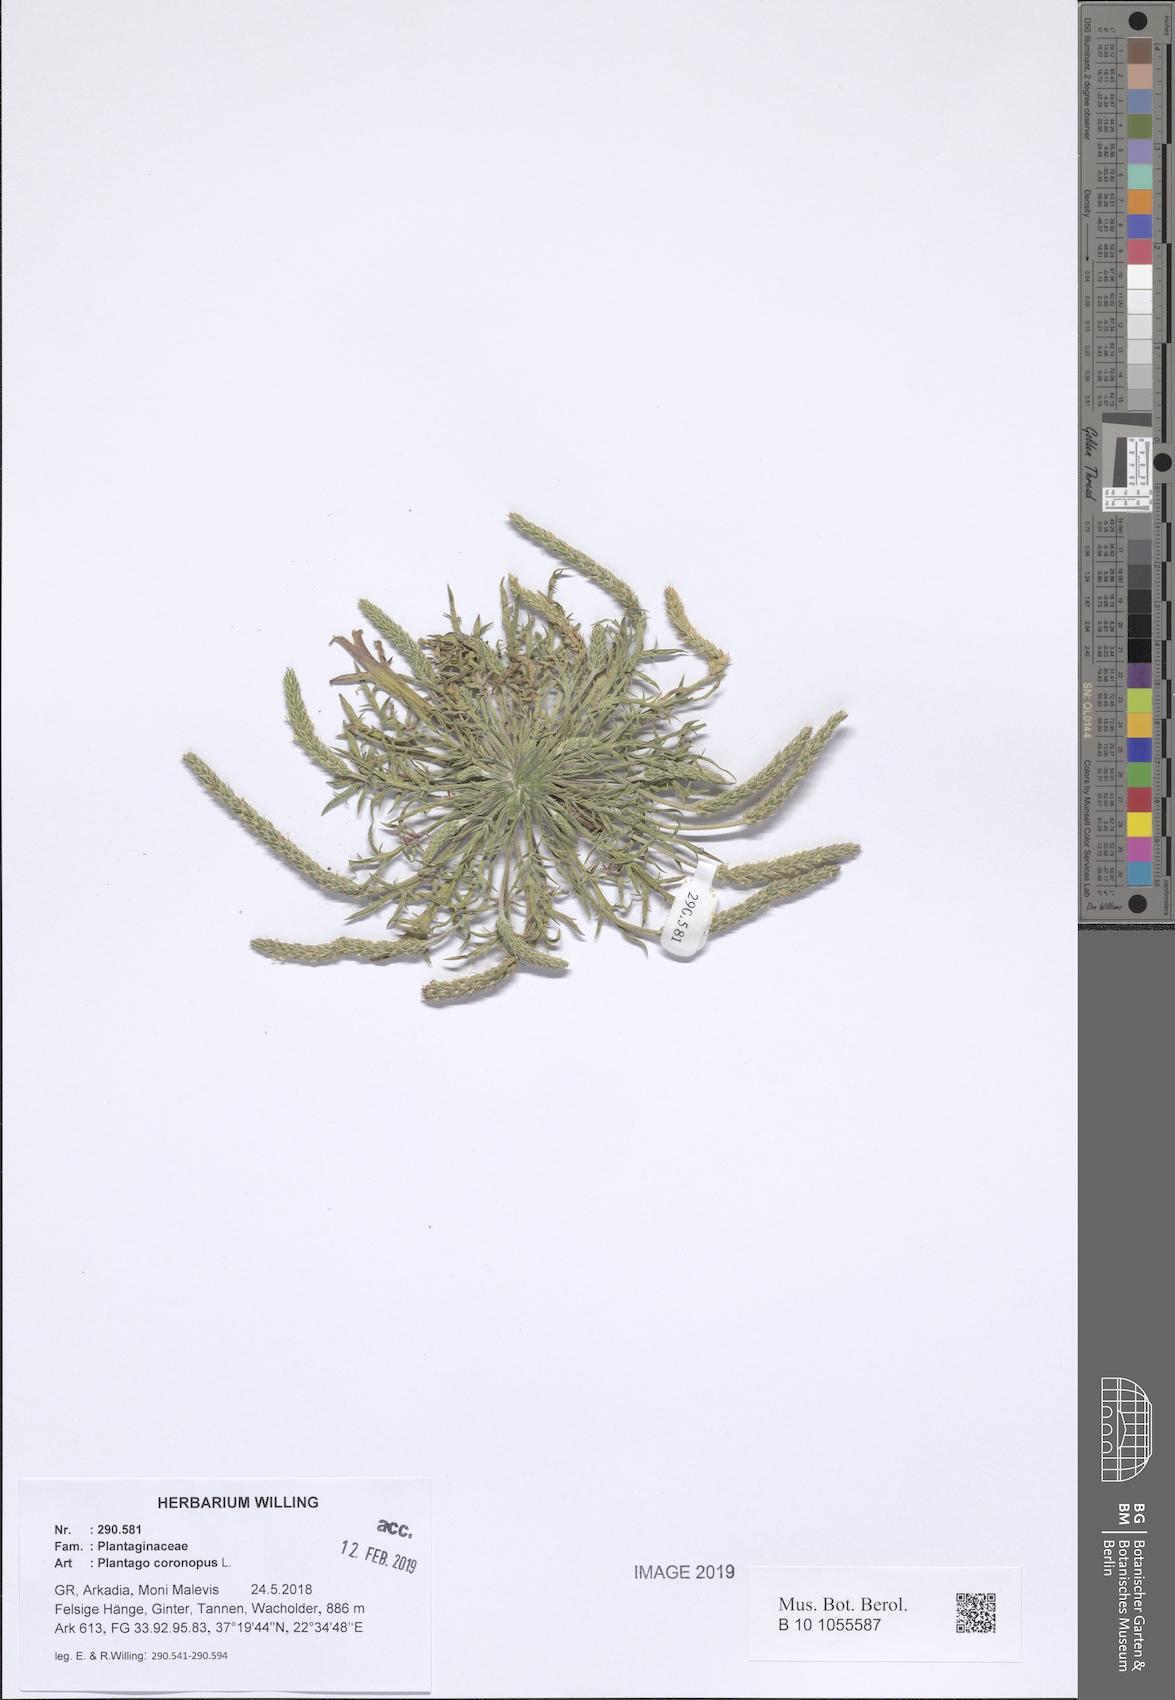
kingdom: Plantae
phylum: Tracheophyta
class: Magnoliopsida
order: Lamiales
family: Plantaginaceae
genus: Plantago
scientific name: Plantago coronopus
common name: Buck's-horn plantain
